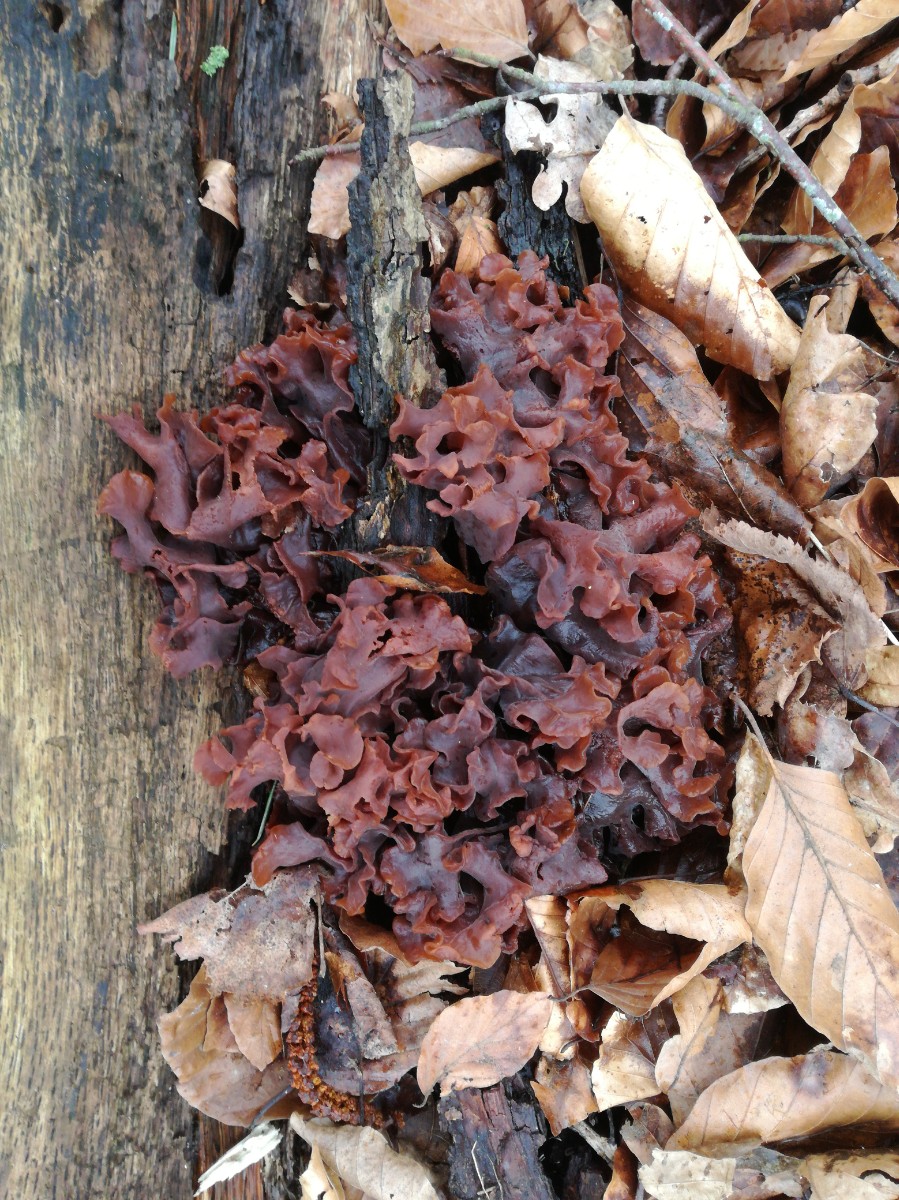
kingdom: Fungi
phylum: Basidiomycota
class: Tremellomycetes
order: Tremellales
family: Tremellaceae
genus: Phaeotremella
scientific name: Phaeotremella frondosa
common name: kæmpe-bævresvamp
